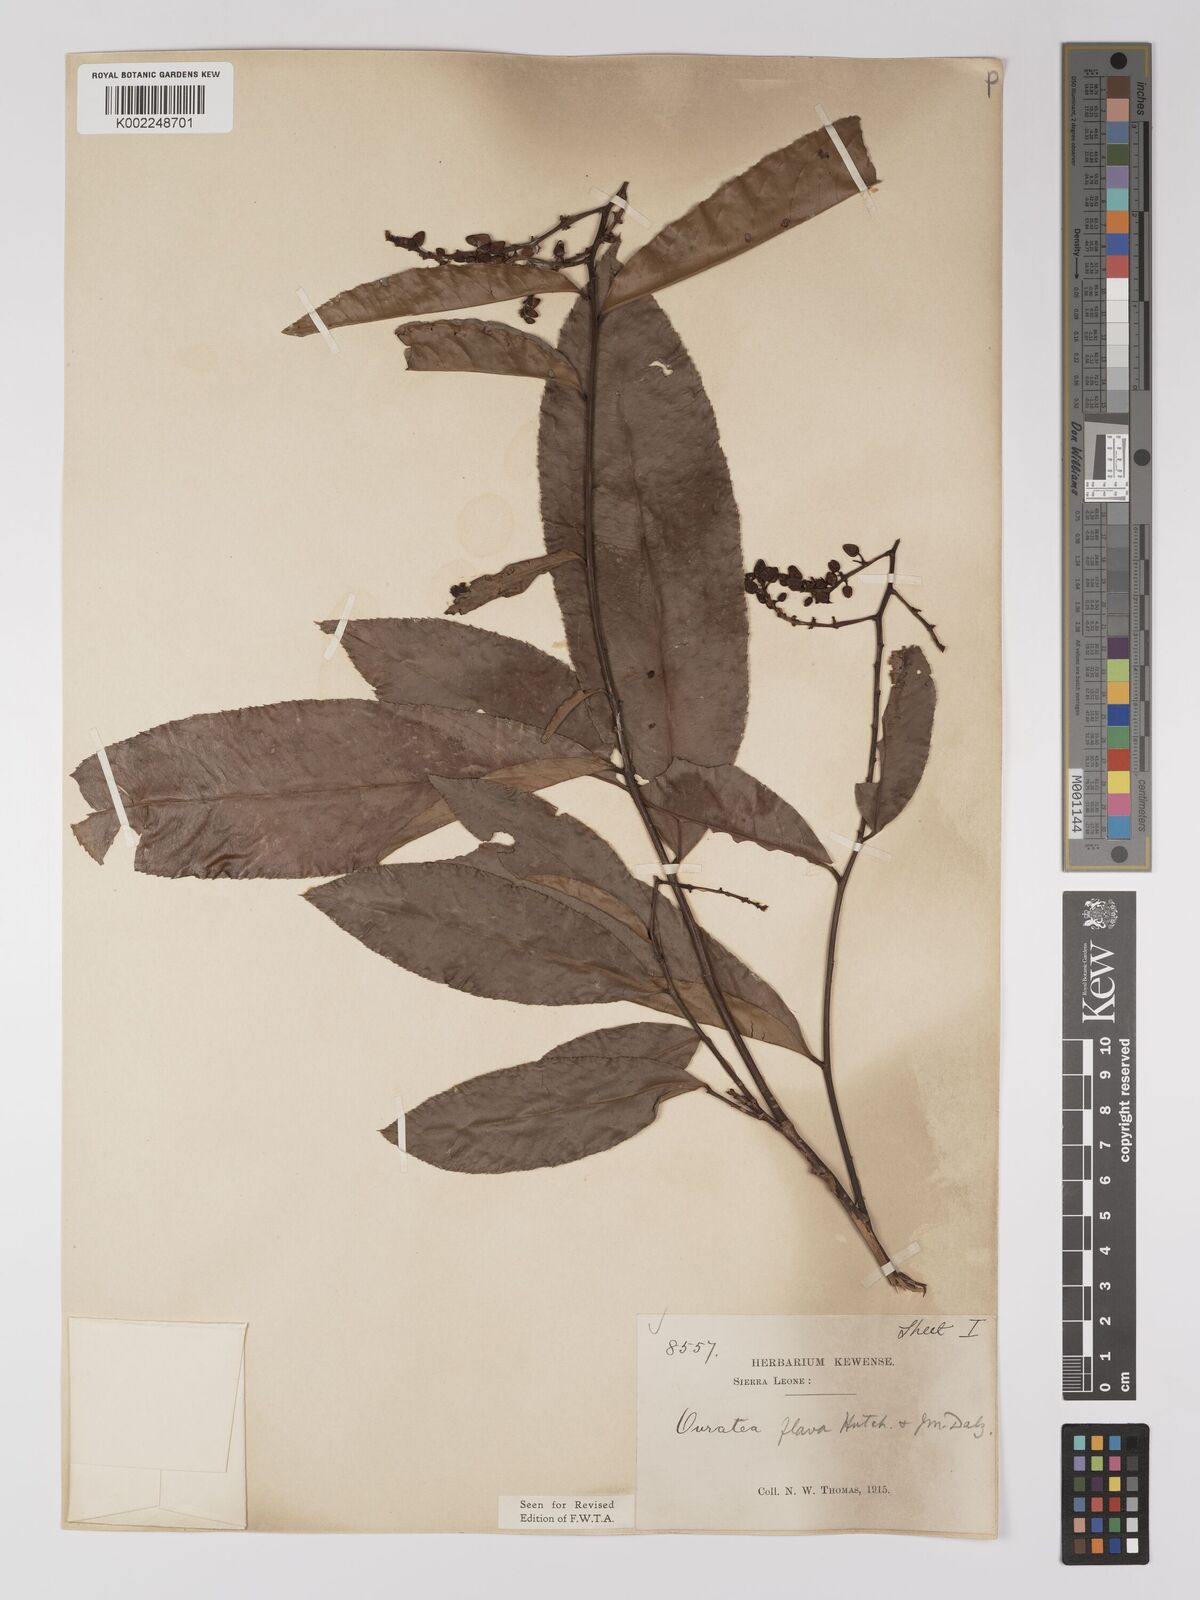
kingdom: Plantae
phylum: Tracheophyta
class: Magnoliopsida
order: Malpighiales
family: Ochnaceae
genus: Campylospermum
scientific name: Campylospermum flavum
